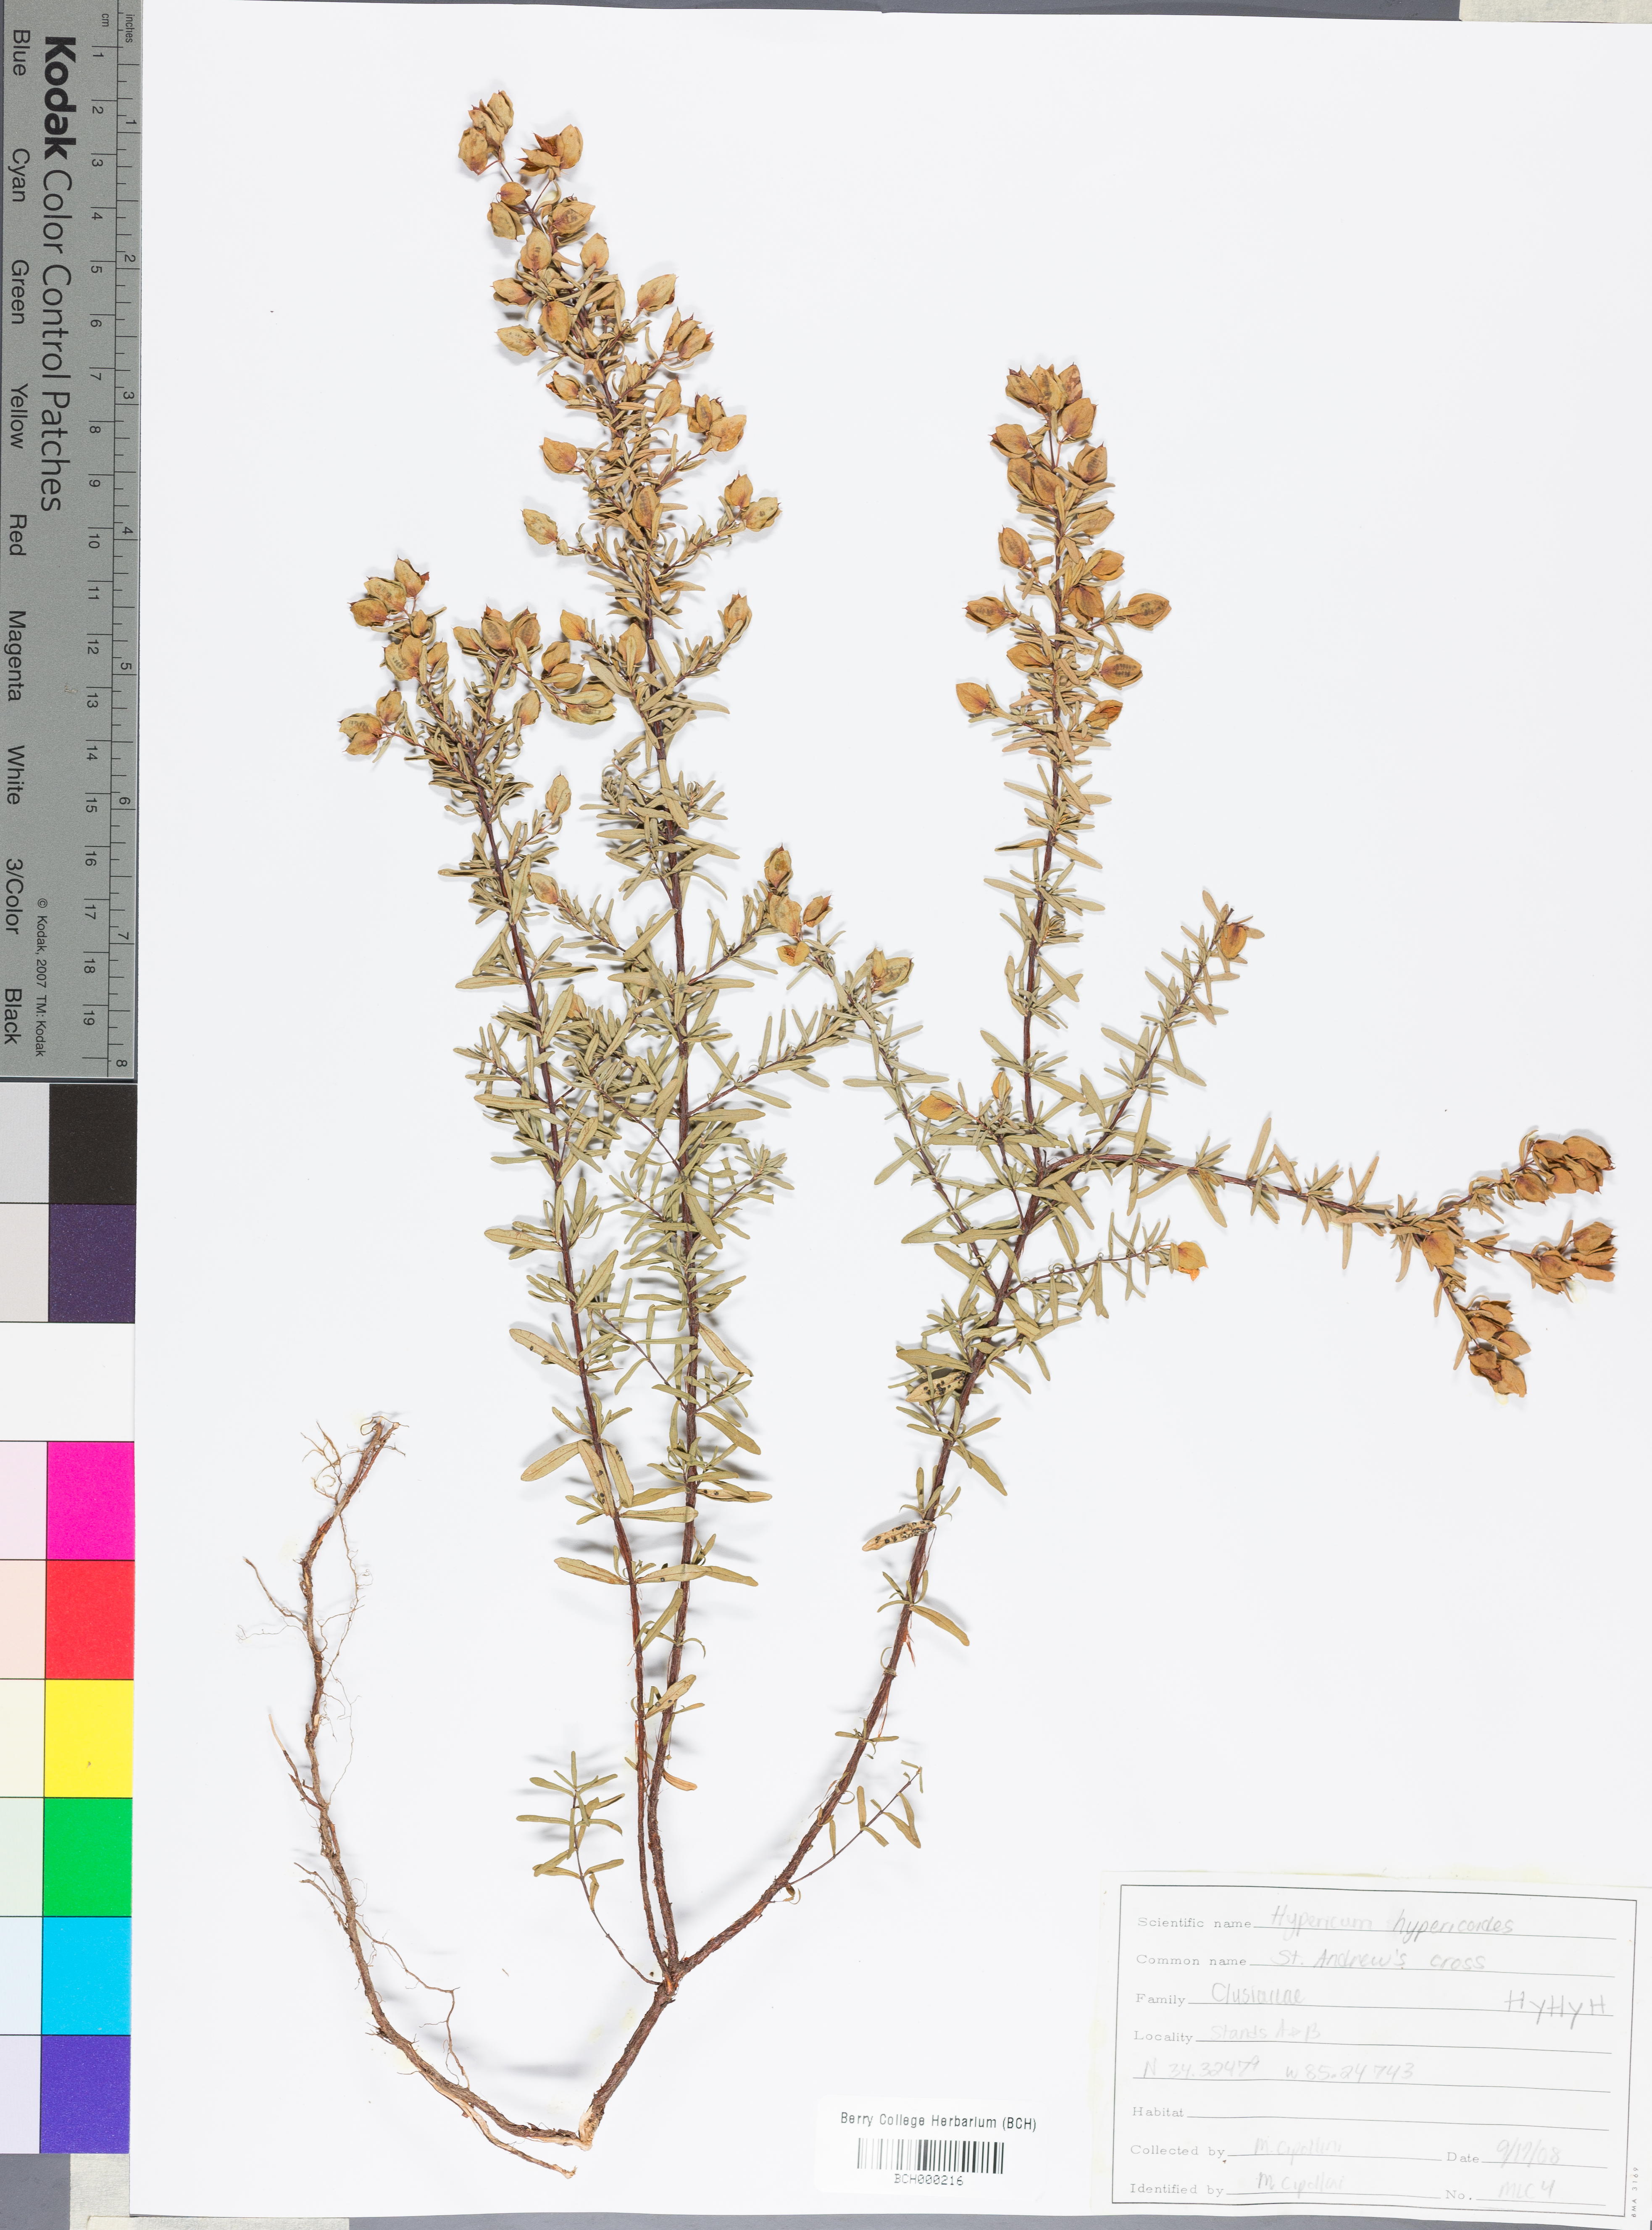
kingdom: Plantae
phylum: Tracheophyta
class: Magnoliopsida
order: Malpighiales
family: Hypericaceae
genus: Hypericum
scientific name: Hypericum hypericoides
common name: St. andrew's cross
